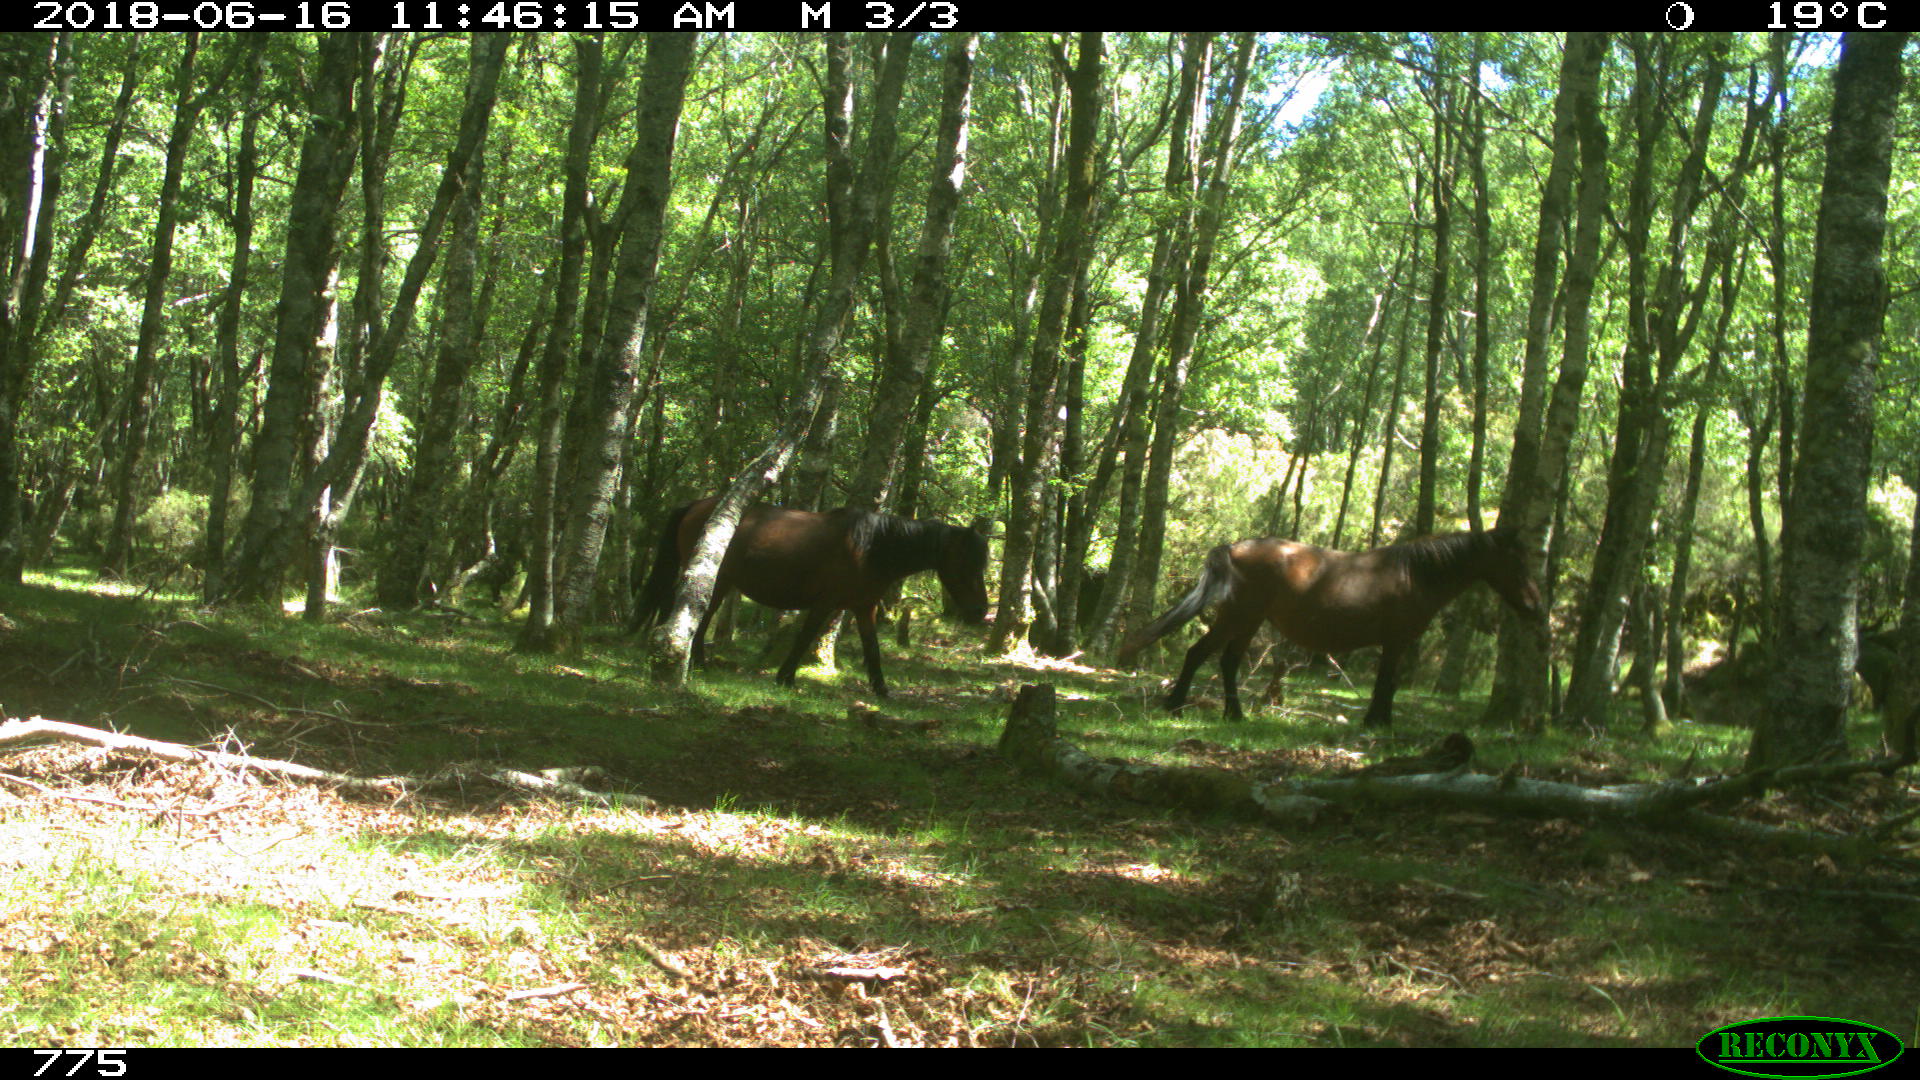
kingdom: Animalia
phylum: Chordata
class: Mammalia
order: Perissodactyla
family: Equidae
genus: Equus
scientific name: Equus caballus
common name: Horse
